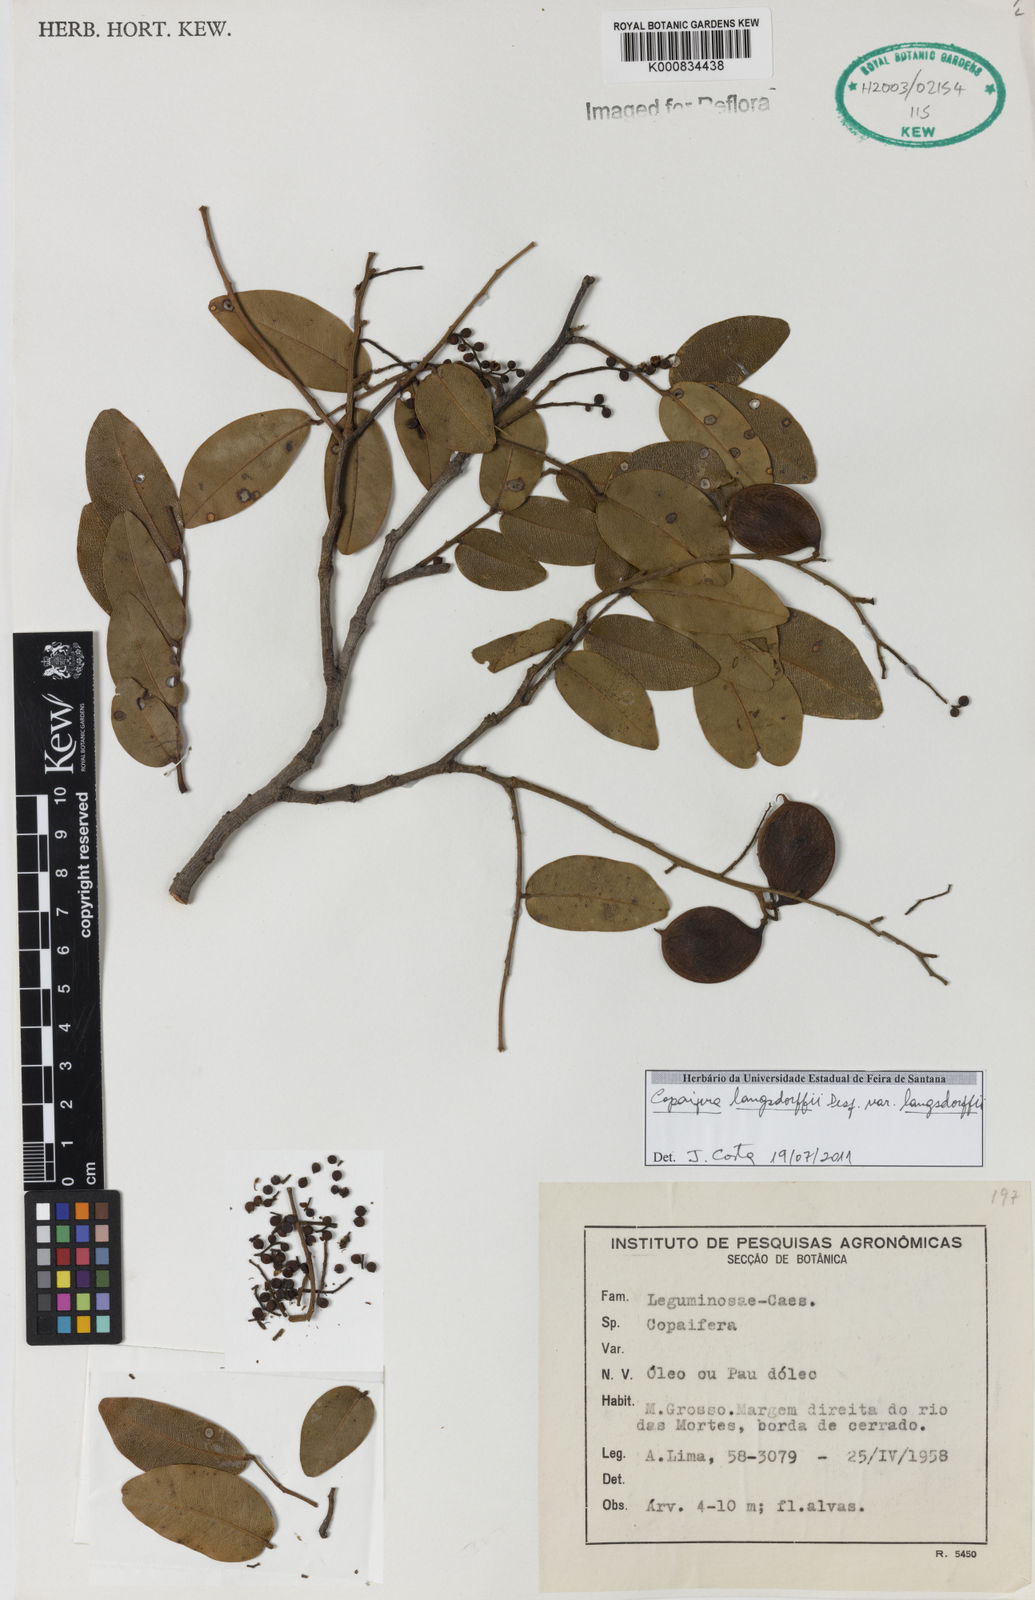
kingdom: Plantae
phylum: Tracheophyta
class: Magnoliopsida
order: Fabales
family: Fabaceae
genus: Copaifera
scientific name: Copaifera langsdorffii
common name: Brazilian diesel tree
